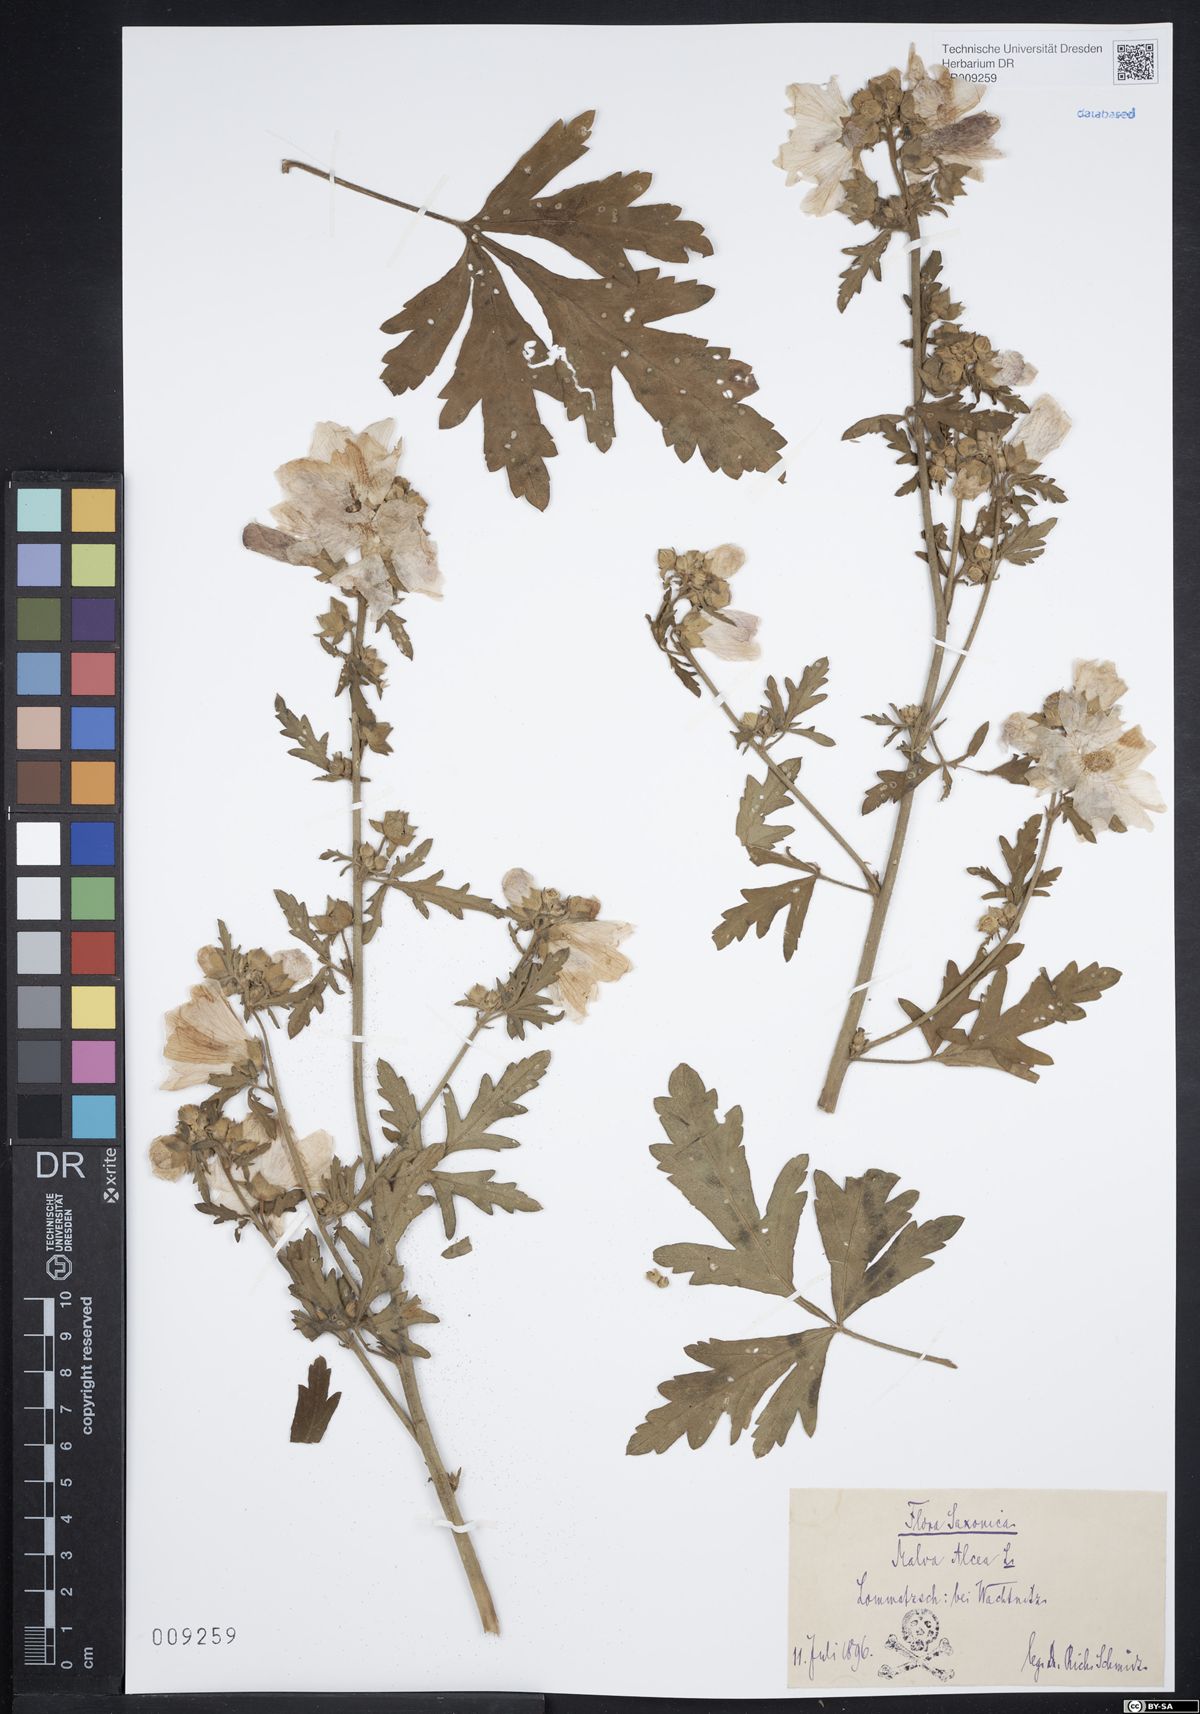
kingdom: Plantae
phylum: Tracheophyta
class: Magnoliopsida
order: Malvales
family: Malvaceae
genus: Malva
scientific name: Malva alcea
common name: Greater musk-mallow
